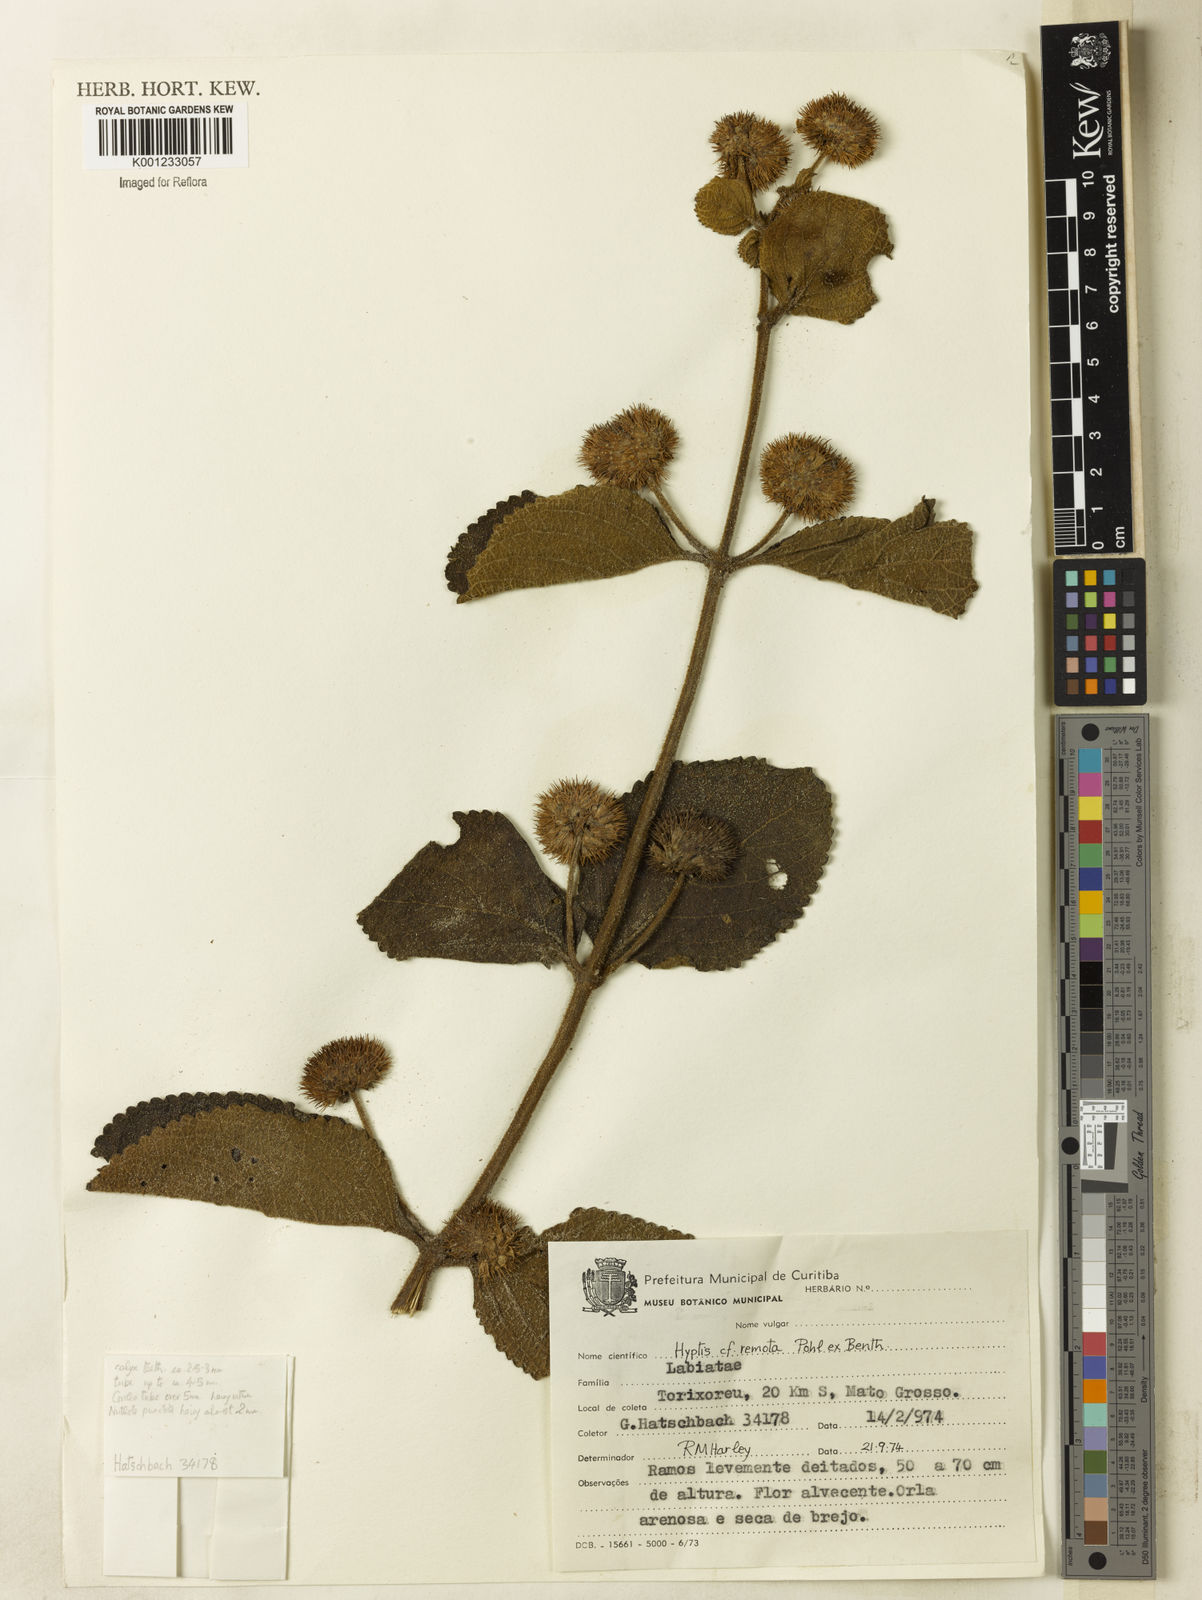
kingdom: Plantae
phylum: Tracheophyta
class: Magnoliopsida
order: Lamiales
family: Lamiaceae
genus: Hyptis
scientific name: Hyptis remota
